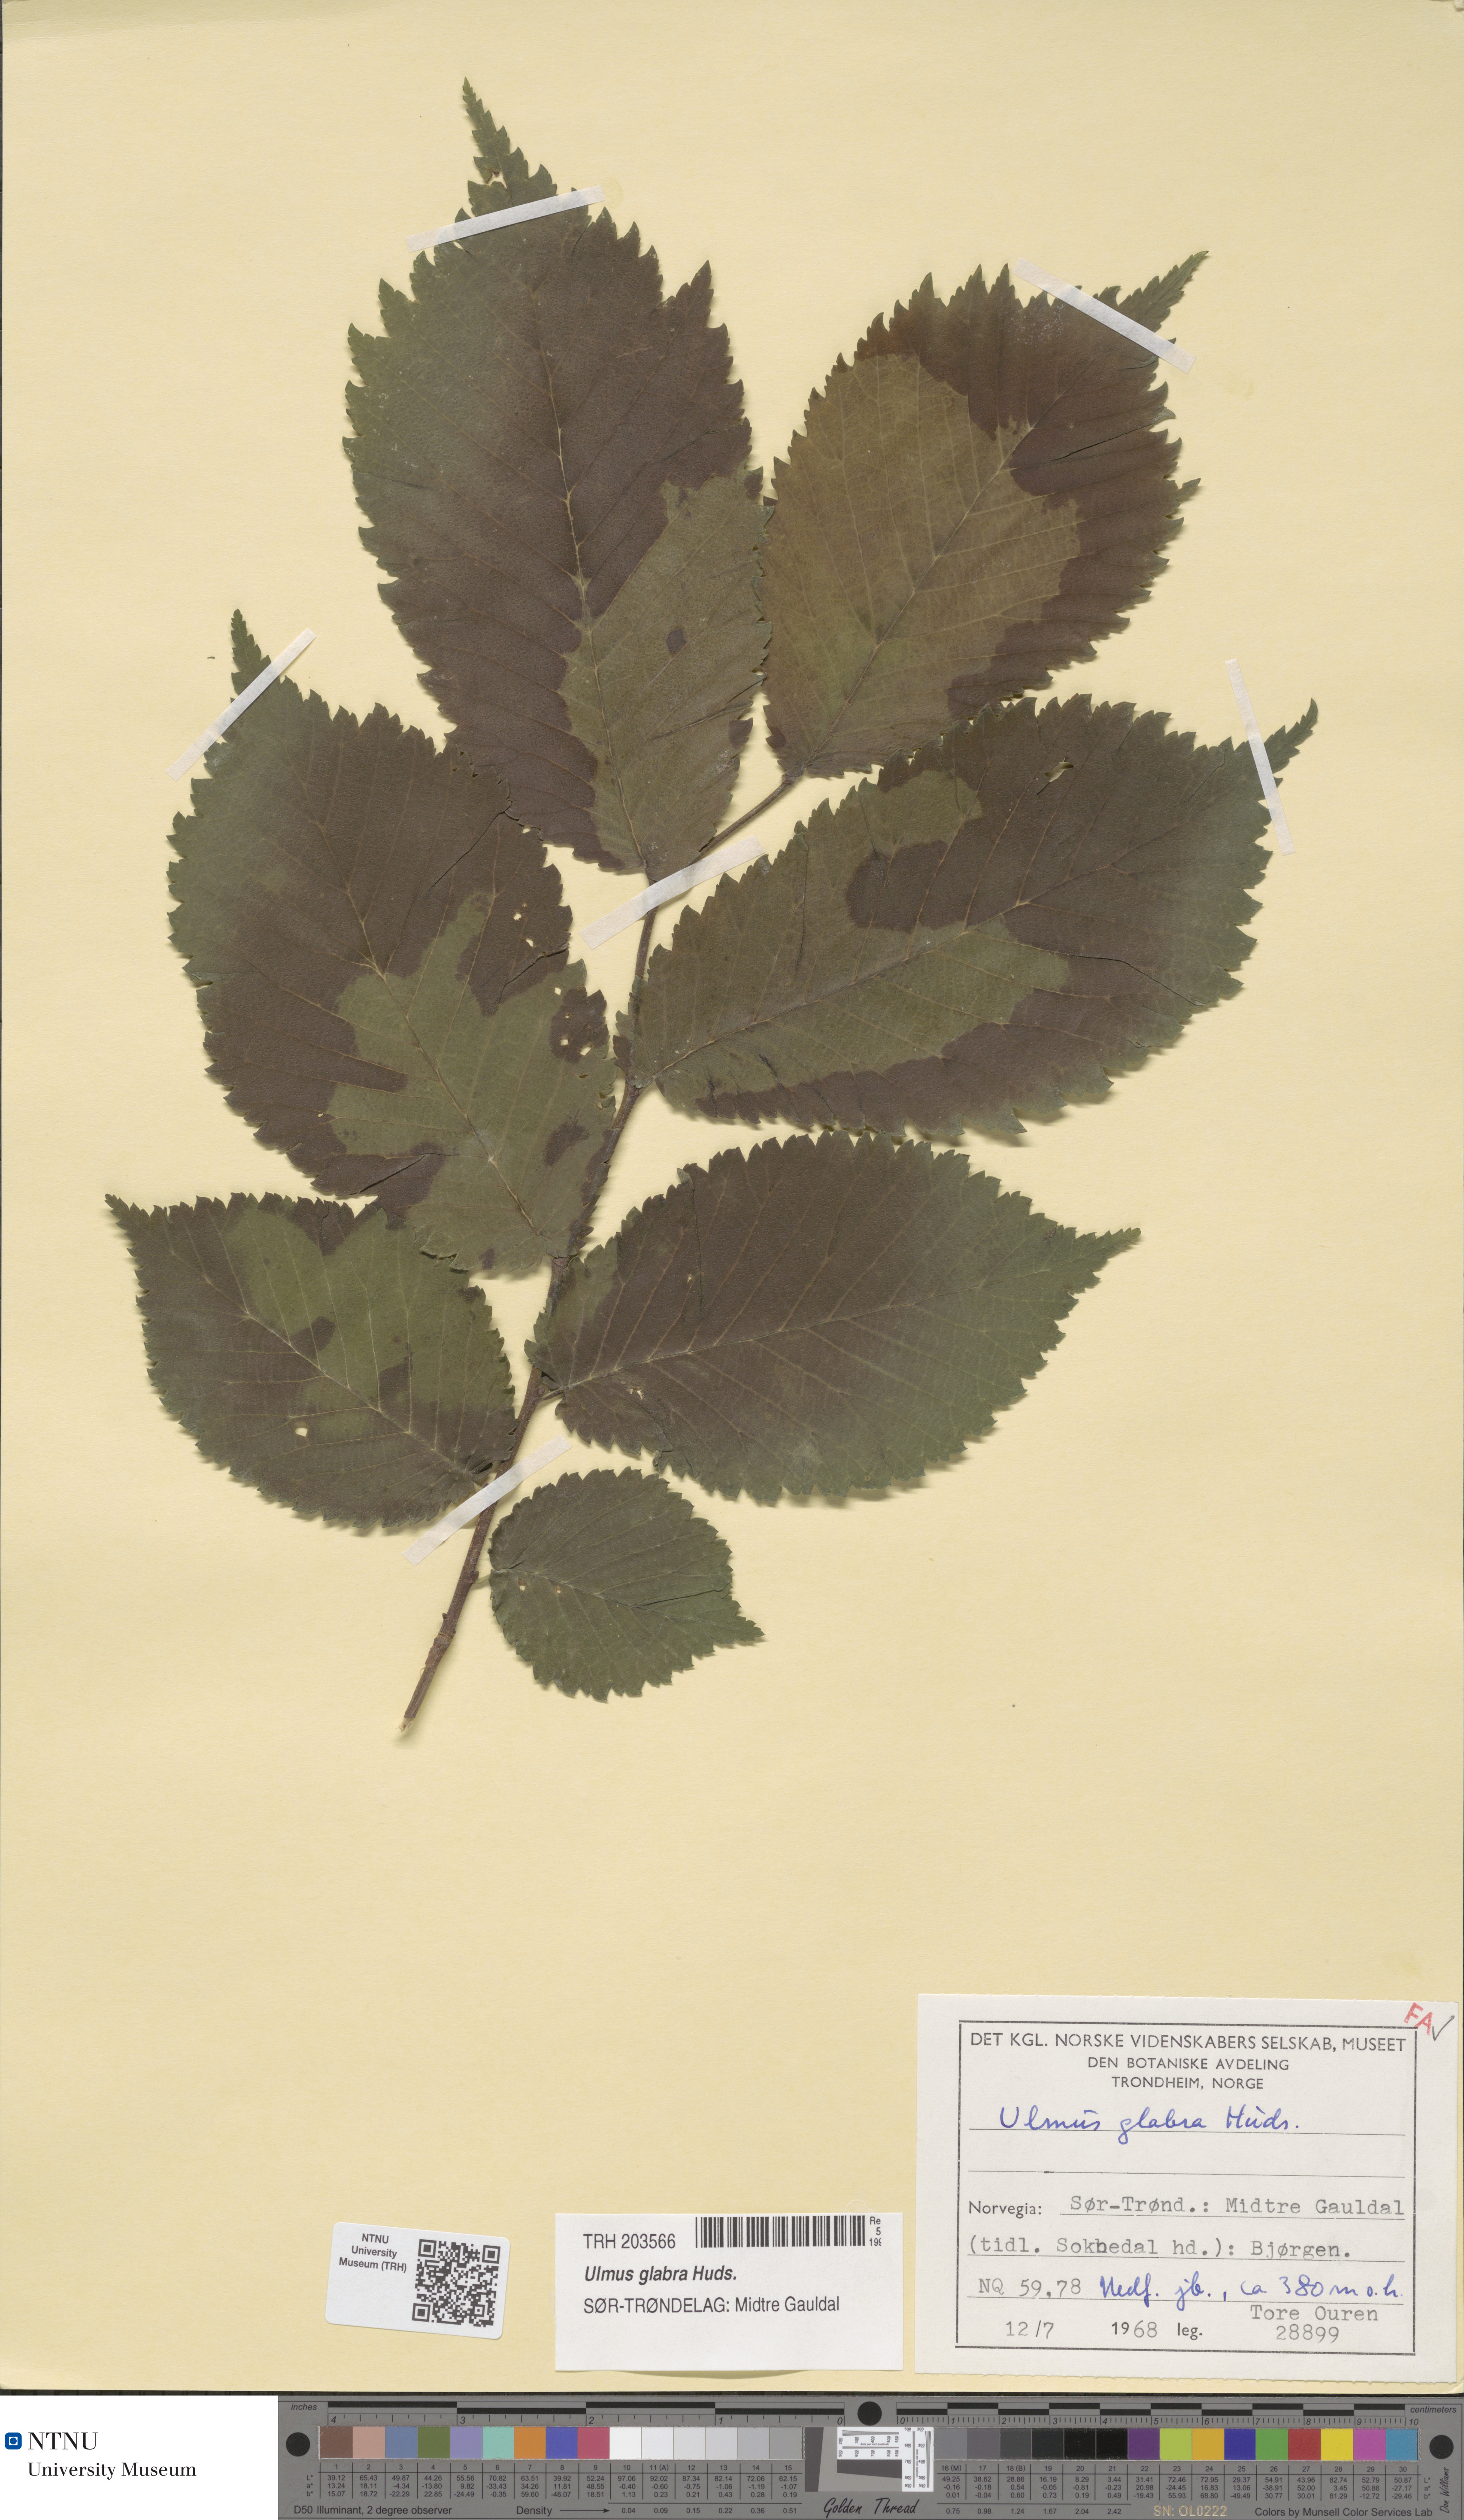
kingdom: Plantae
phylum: Tracheophyta
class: Magnoliopsida
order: Rosales
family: Ulmaceae
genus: Ulmus
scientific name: Ulmus glabra
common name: Wych elm
